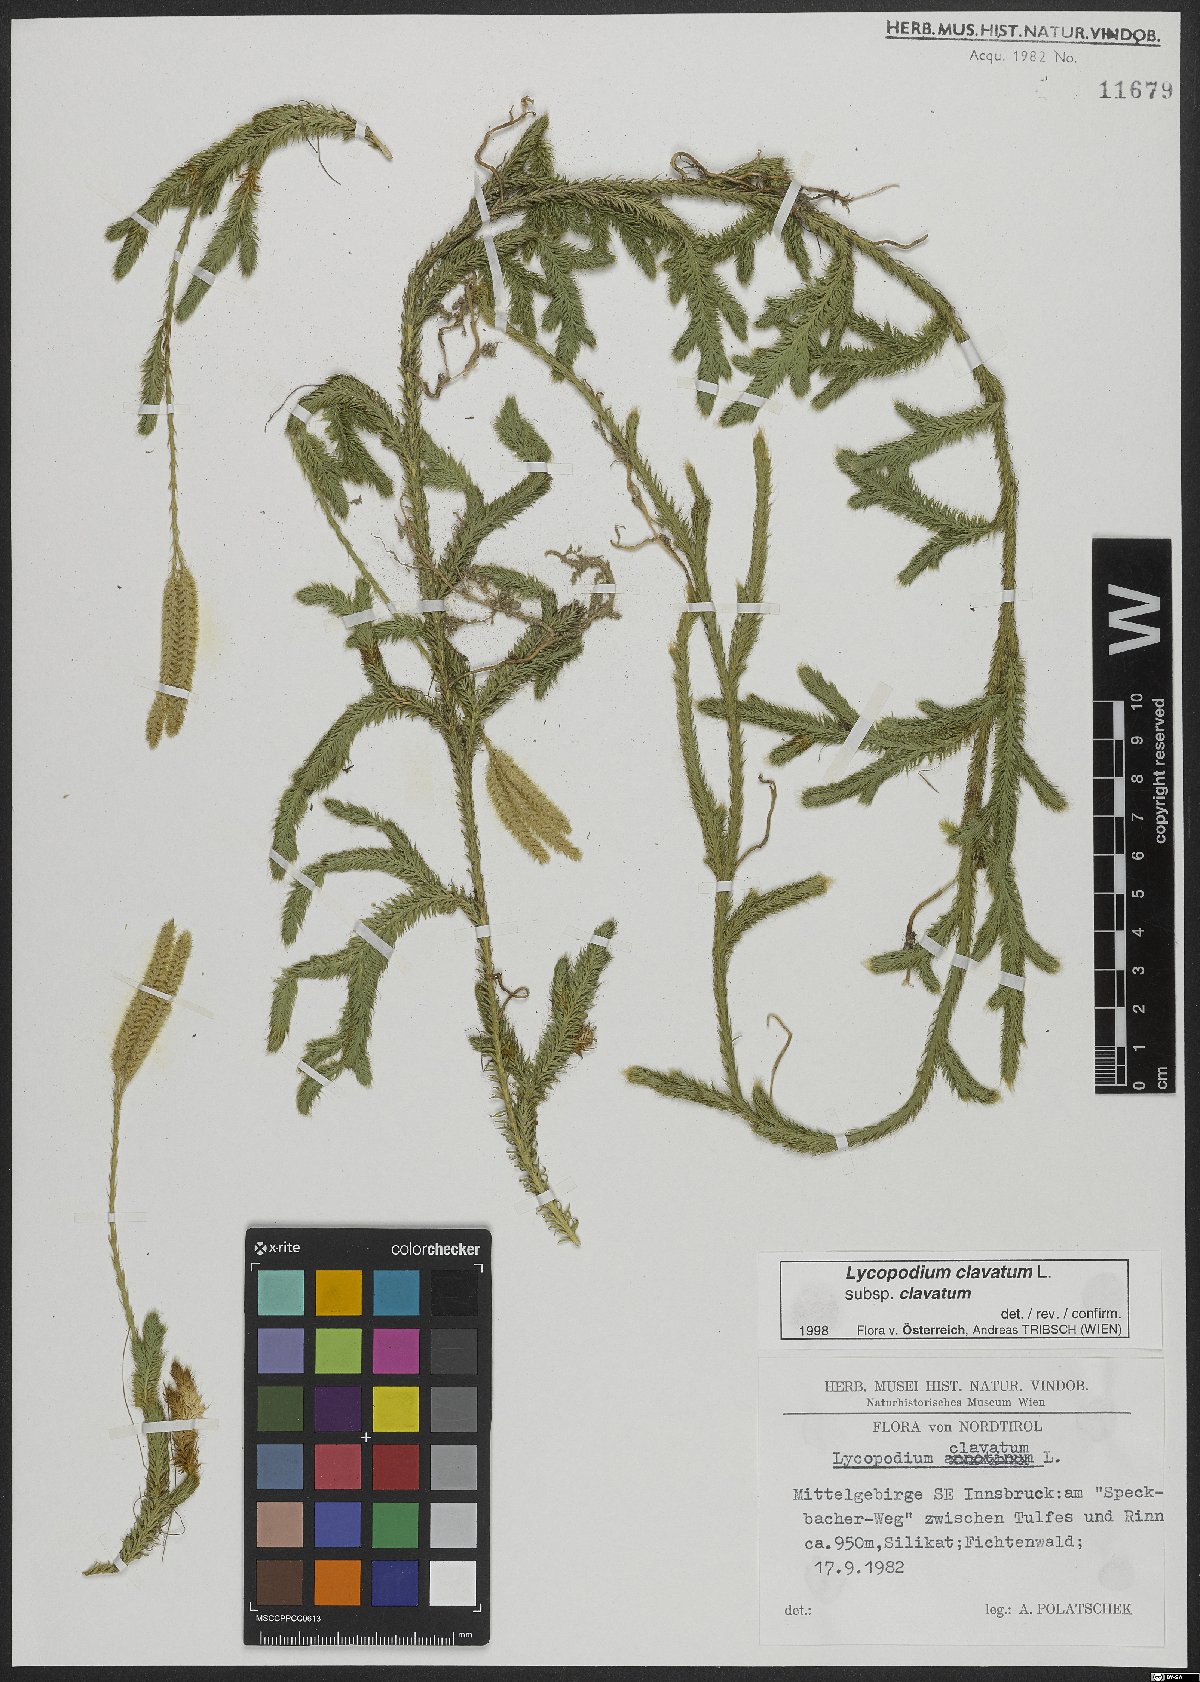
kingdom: Plantae
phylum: Tracheophyta
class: Lycopodiopsida
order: Lycopodiales
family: Lycopodiaceae
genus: Lycopodium
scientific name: Lycopodium clavatum
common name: Stag's-horn clubmoss
